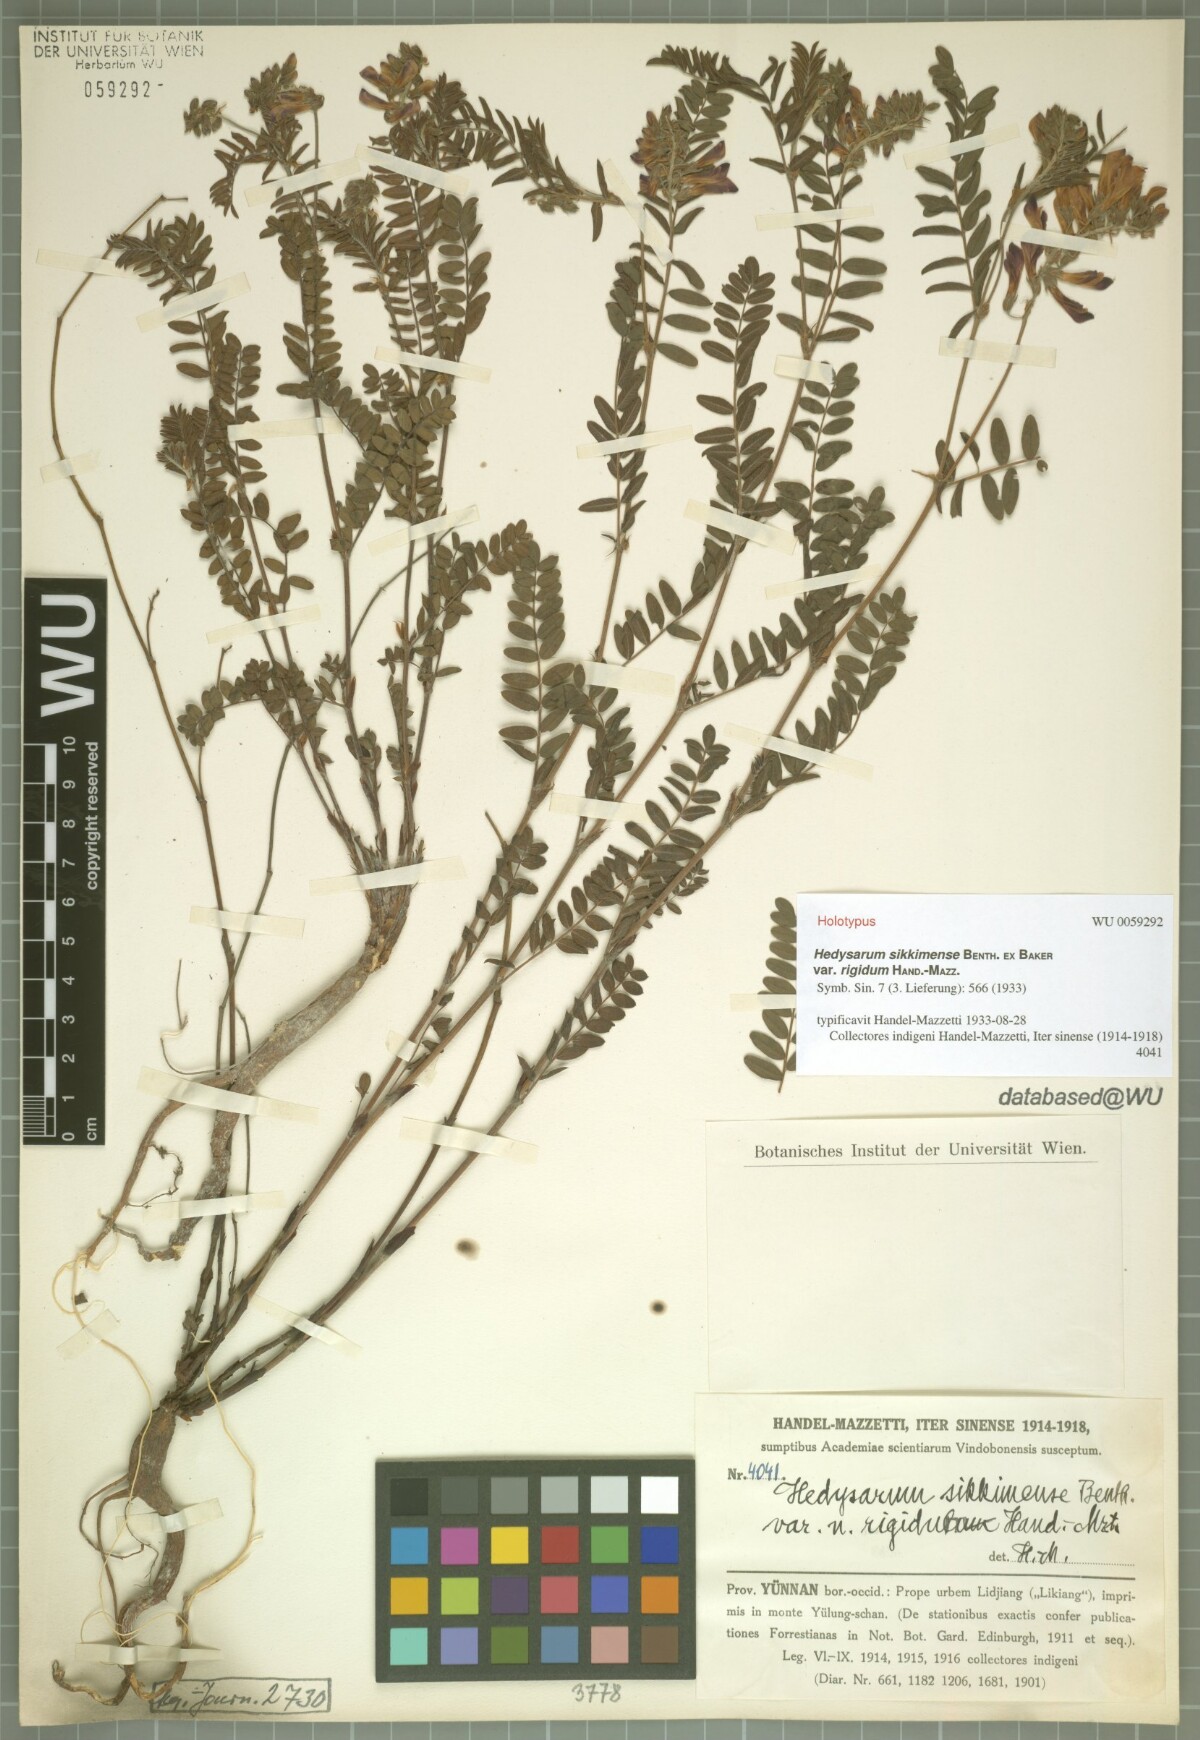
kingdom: Plantae
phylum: Tracheophyta
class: Magnoliopsida
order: Fabales
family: Fabaceae
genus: Hedysarum
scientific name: Hedysarum sikkimense
